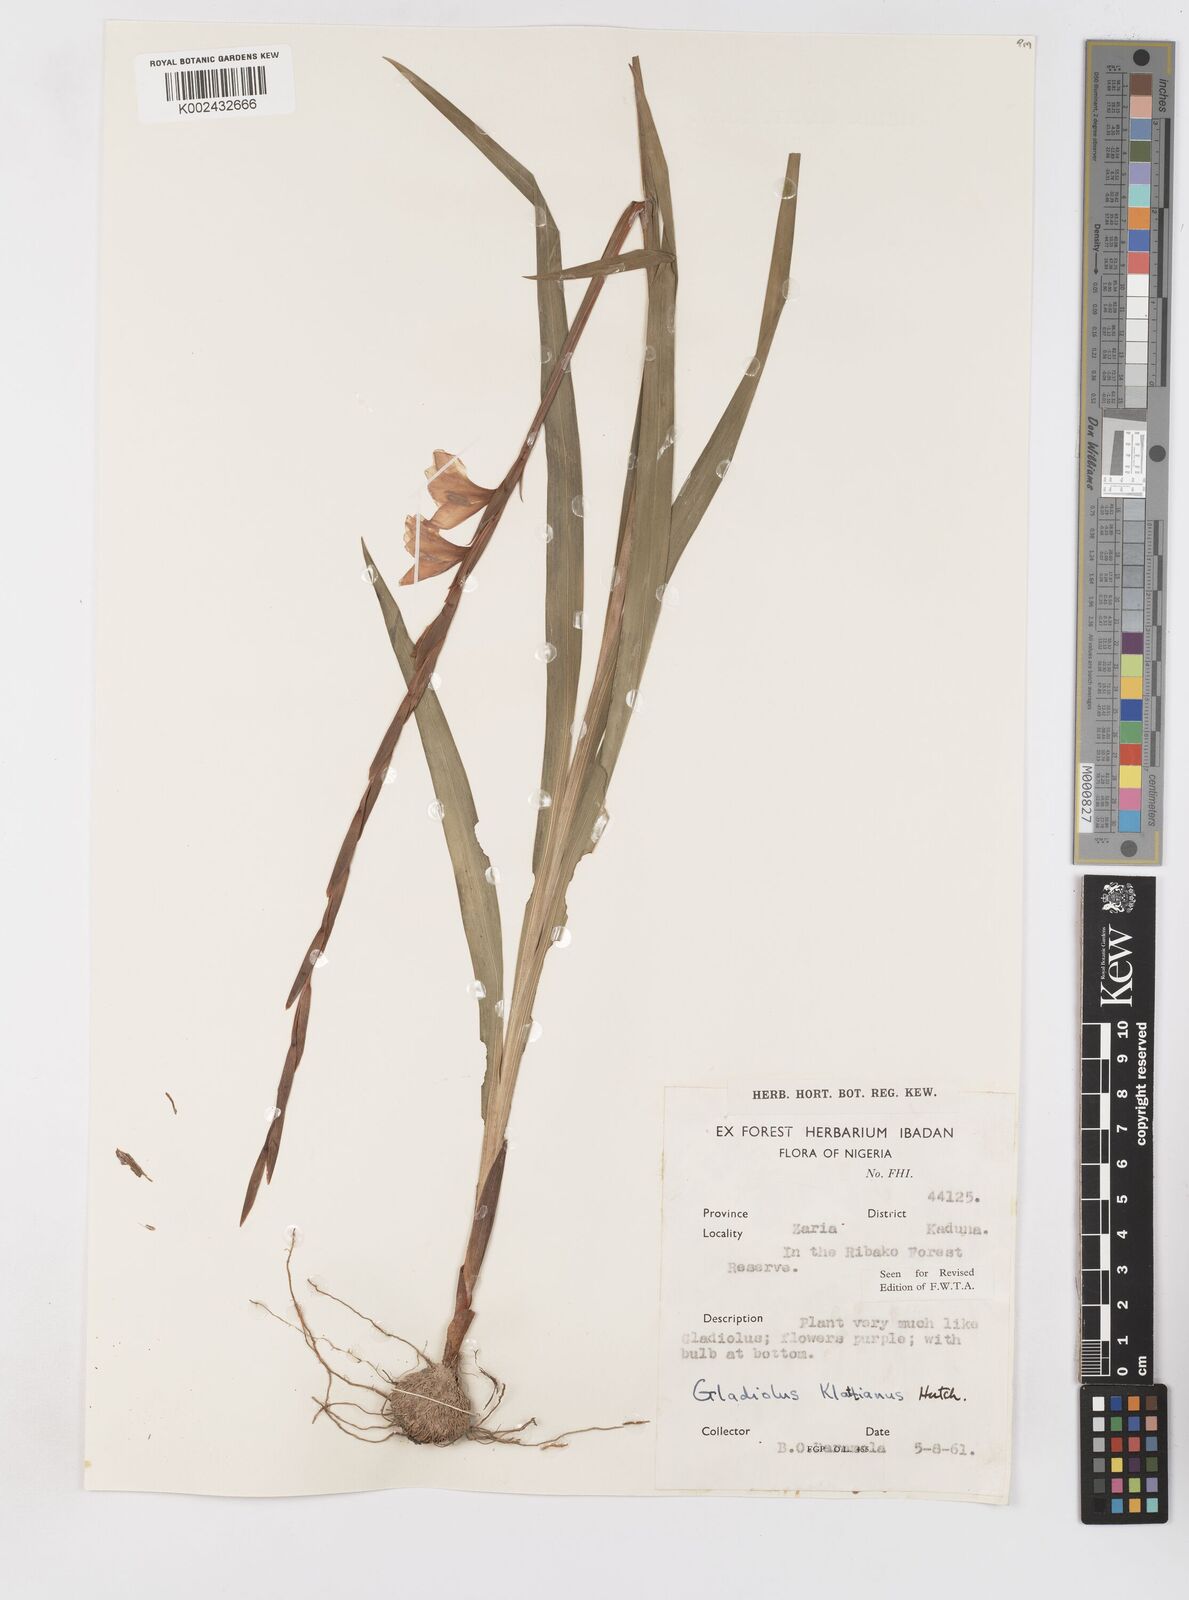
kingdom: Plantae
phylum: Tracheophyta
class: Liliopsida
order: Asparagales
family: Iridaceae
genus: Gladiolus
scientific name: Gladiolus gregarius
